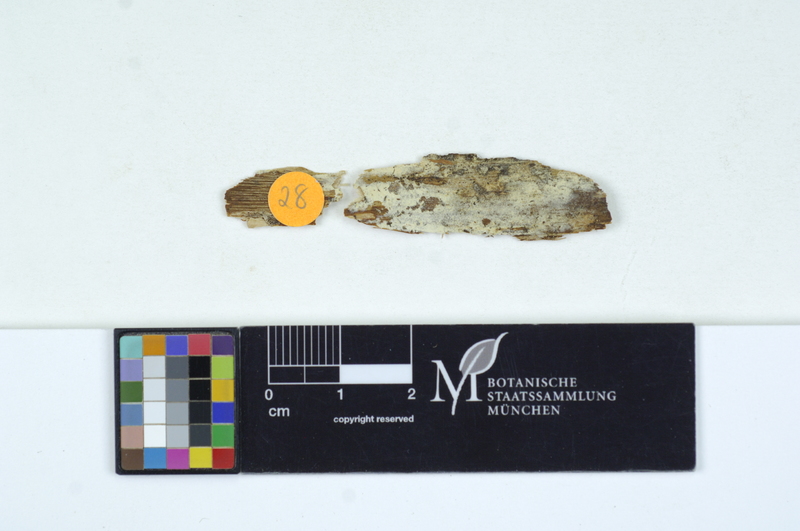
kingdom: Fungi
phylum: Basidiomycota
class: Atractiellomycetes
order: Atractiellales
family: Phleogenaceae
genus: Saccosoma
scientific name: Saccosoma farinaceum
